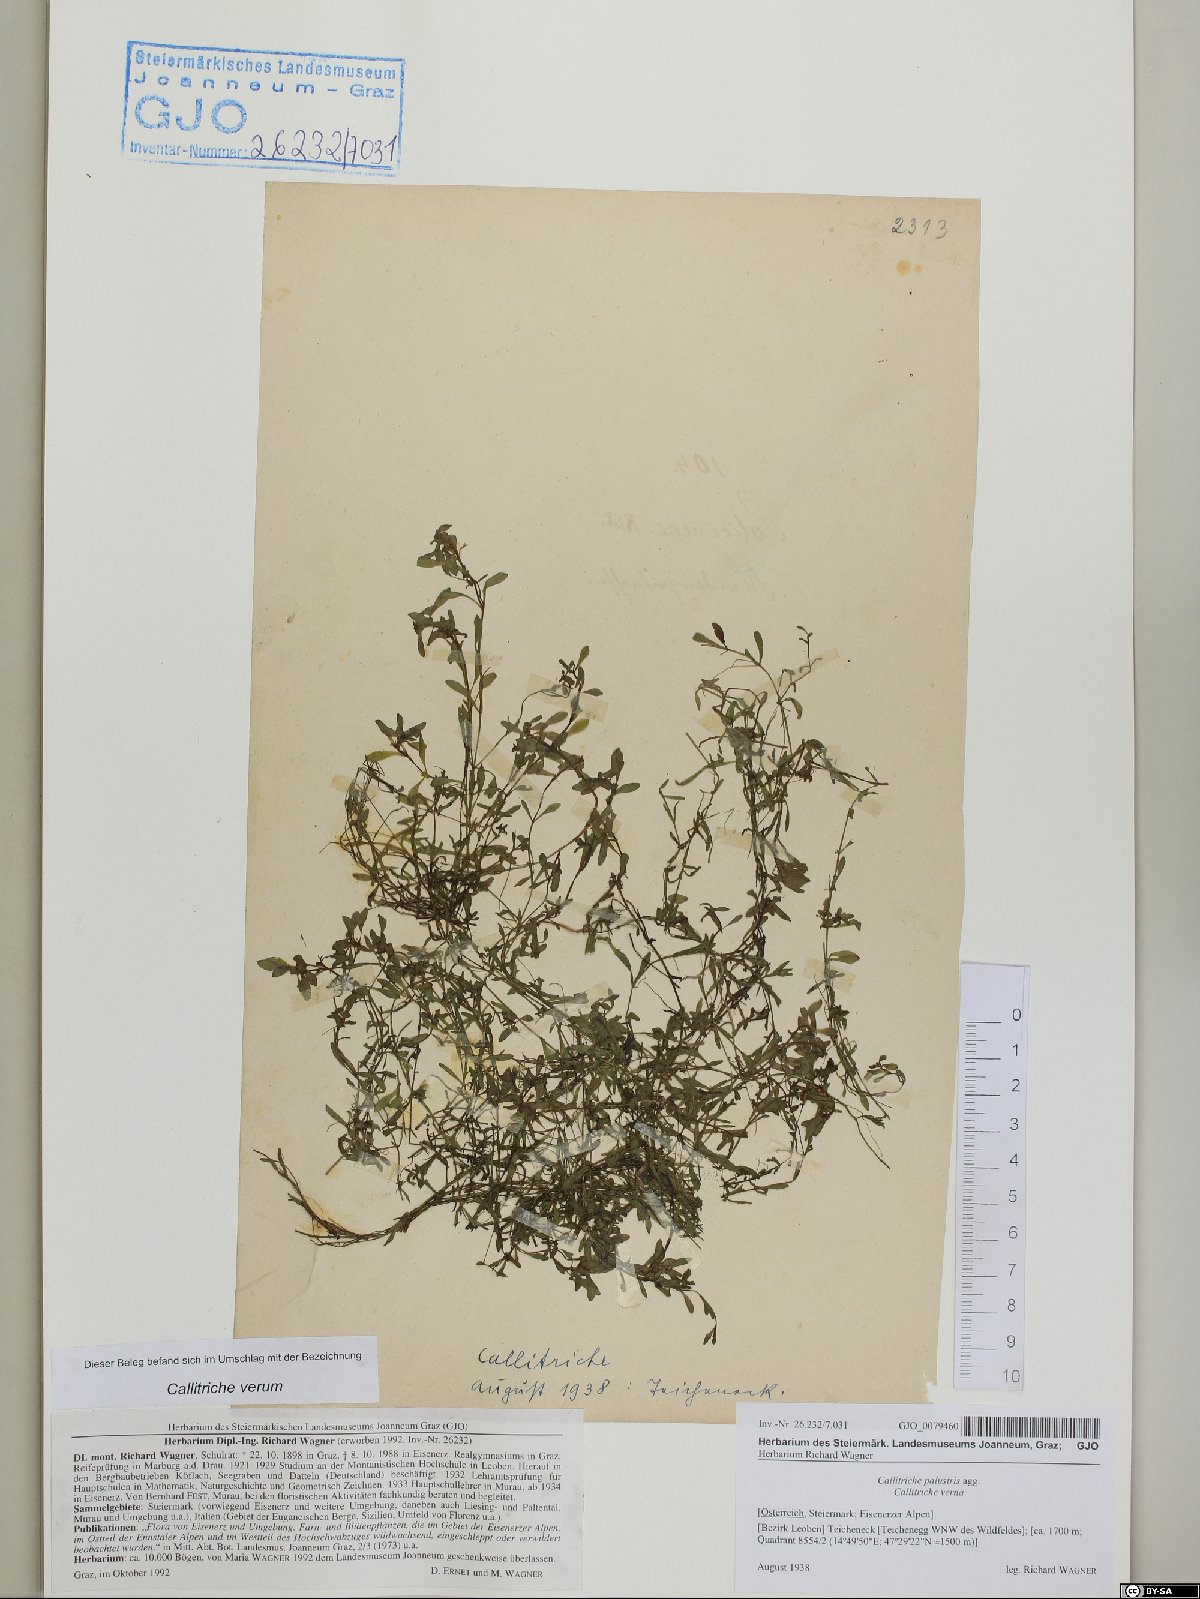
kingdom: Plantae
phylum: Tracheophyta
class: Magnoliopsida
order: Lamiales
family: Plantaginaceae
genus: Callitriche
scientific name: Callitriche palustris
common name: Spring water-starwort
